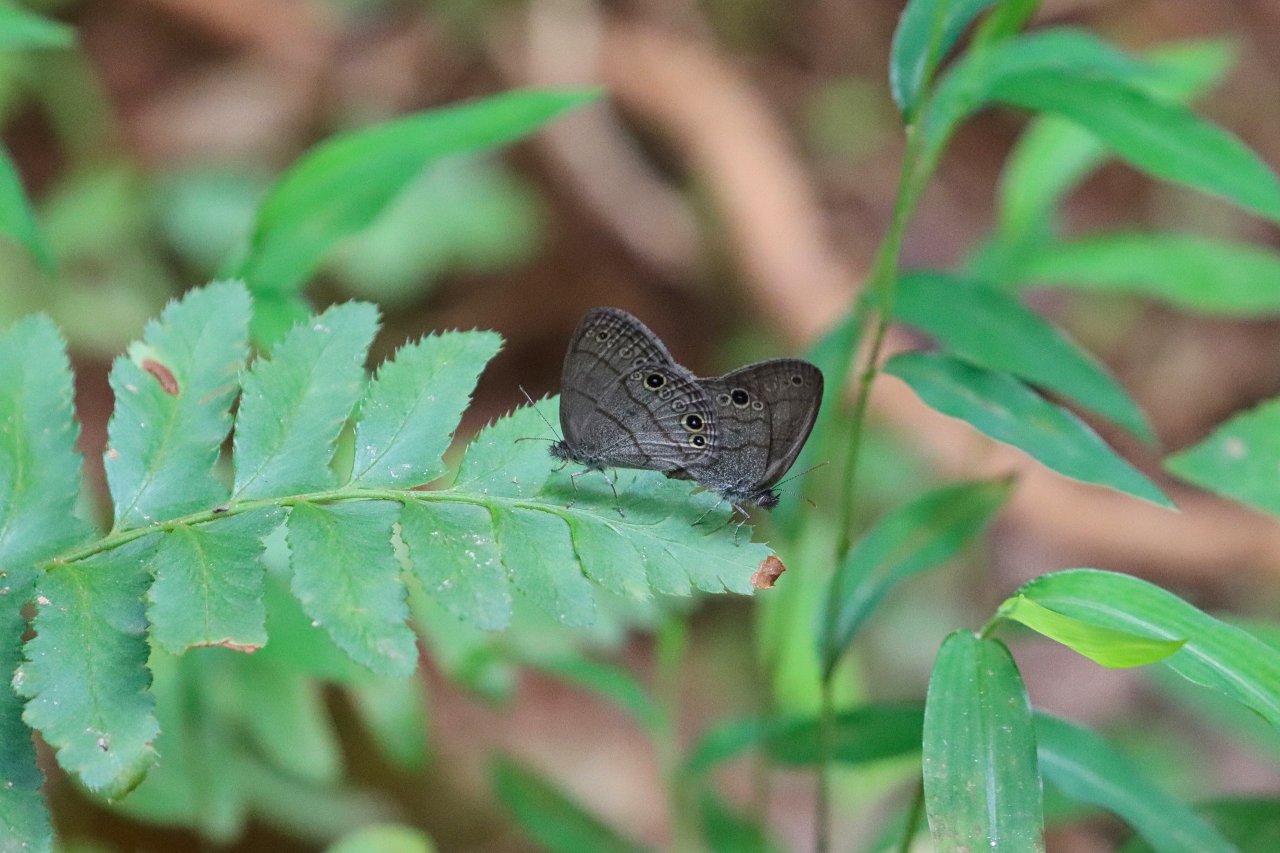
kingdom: Animalia
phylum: Arthropoda
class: Insecta
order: Lepidoptera
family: Nymphalidae
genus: Hermeuptychia
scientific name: Hermeuptychia hermes
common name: Carolina Satyr
